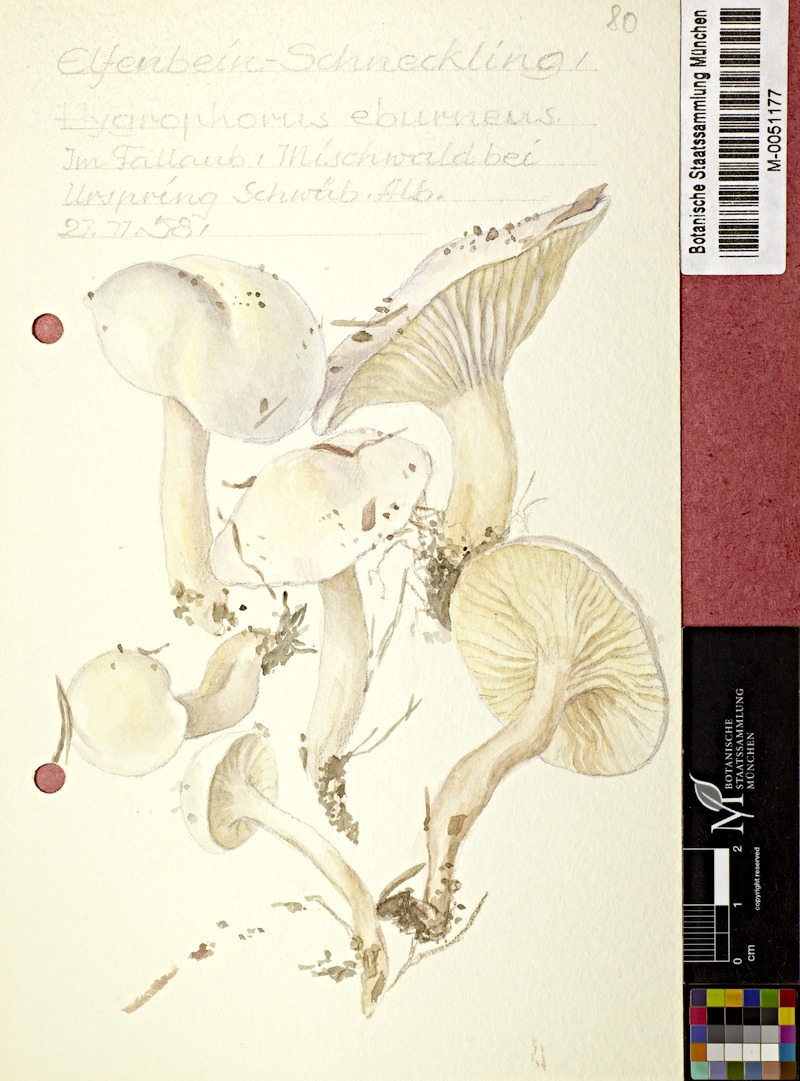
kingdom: Fungi
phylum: Basidiomycota
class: Agaricomycetes
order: Agaricales
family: Hygrophoraceae
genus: Hygrophorus
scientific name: Hygrophorus eburneus
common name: Ivory wax-cap
